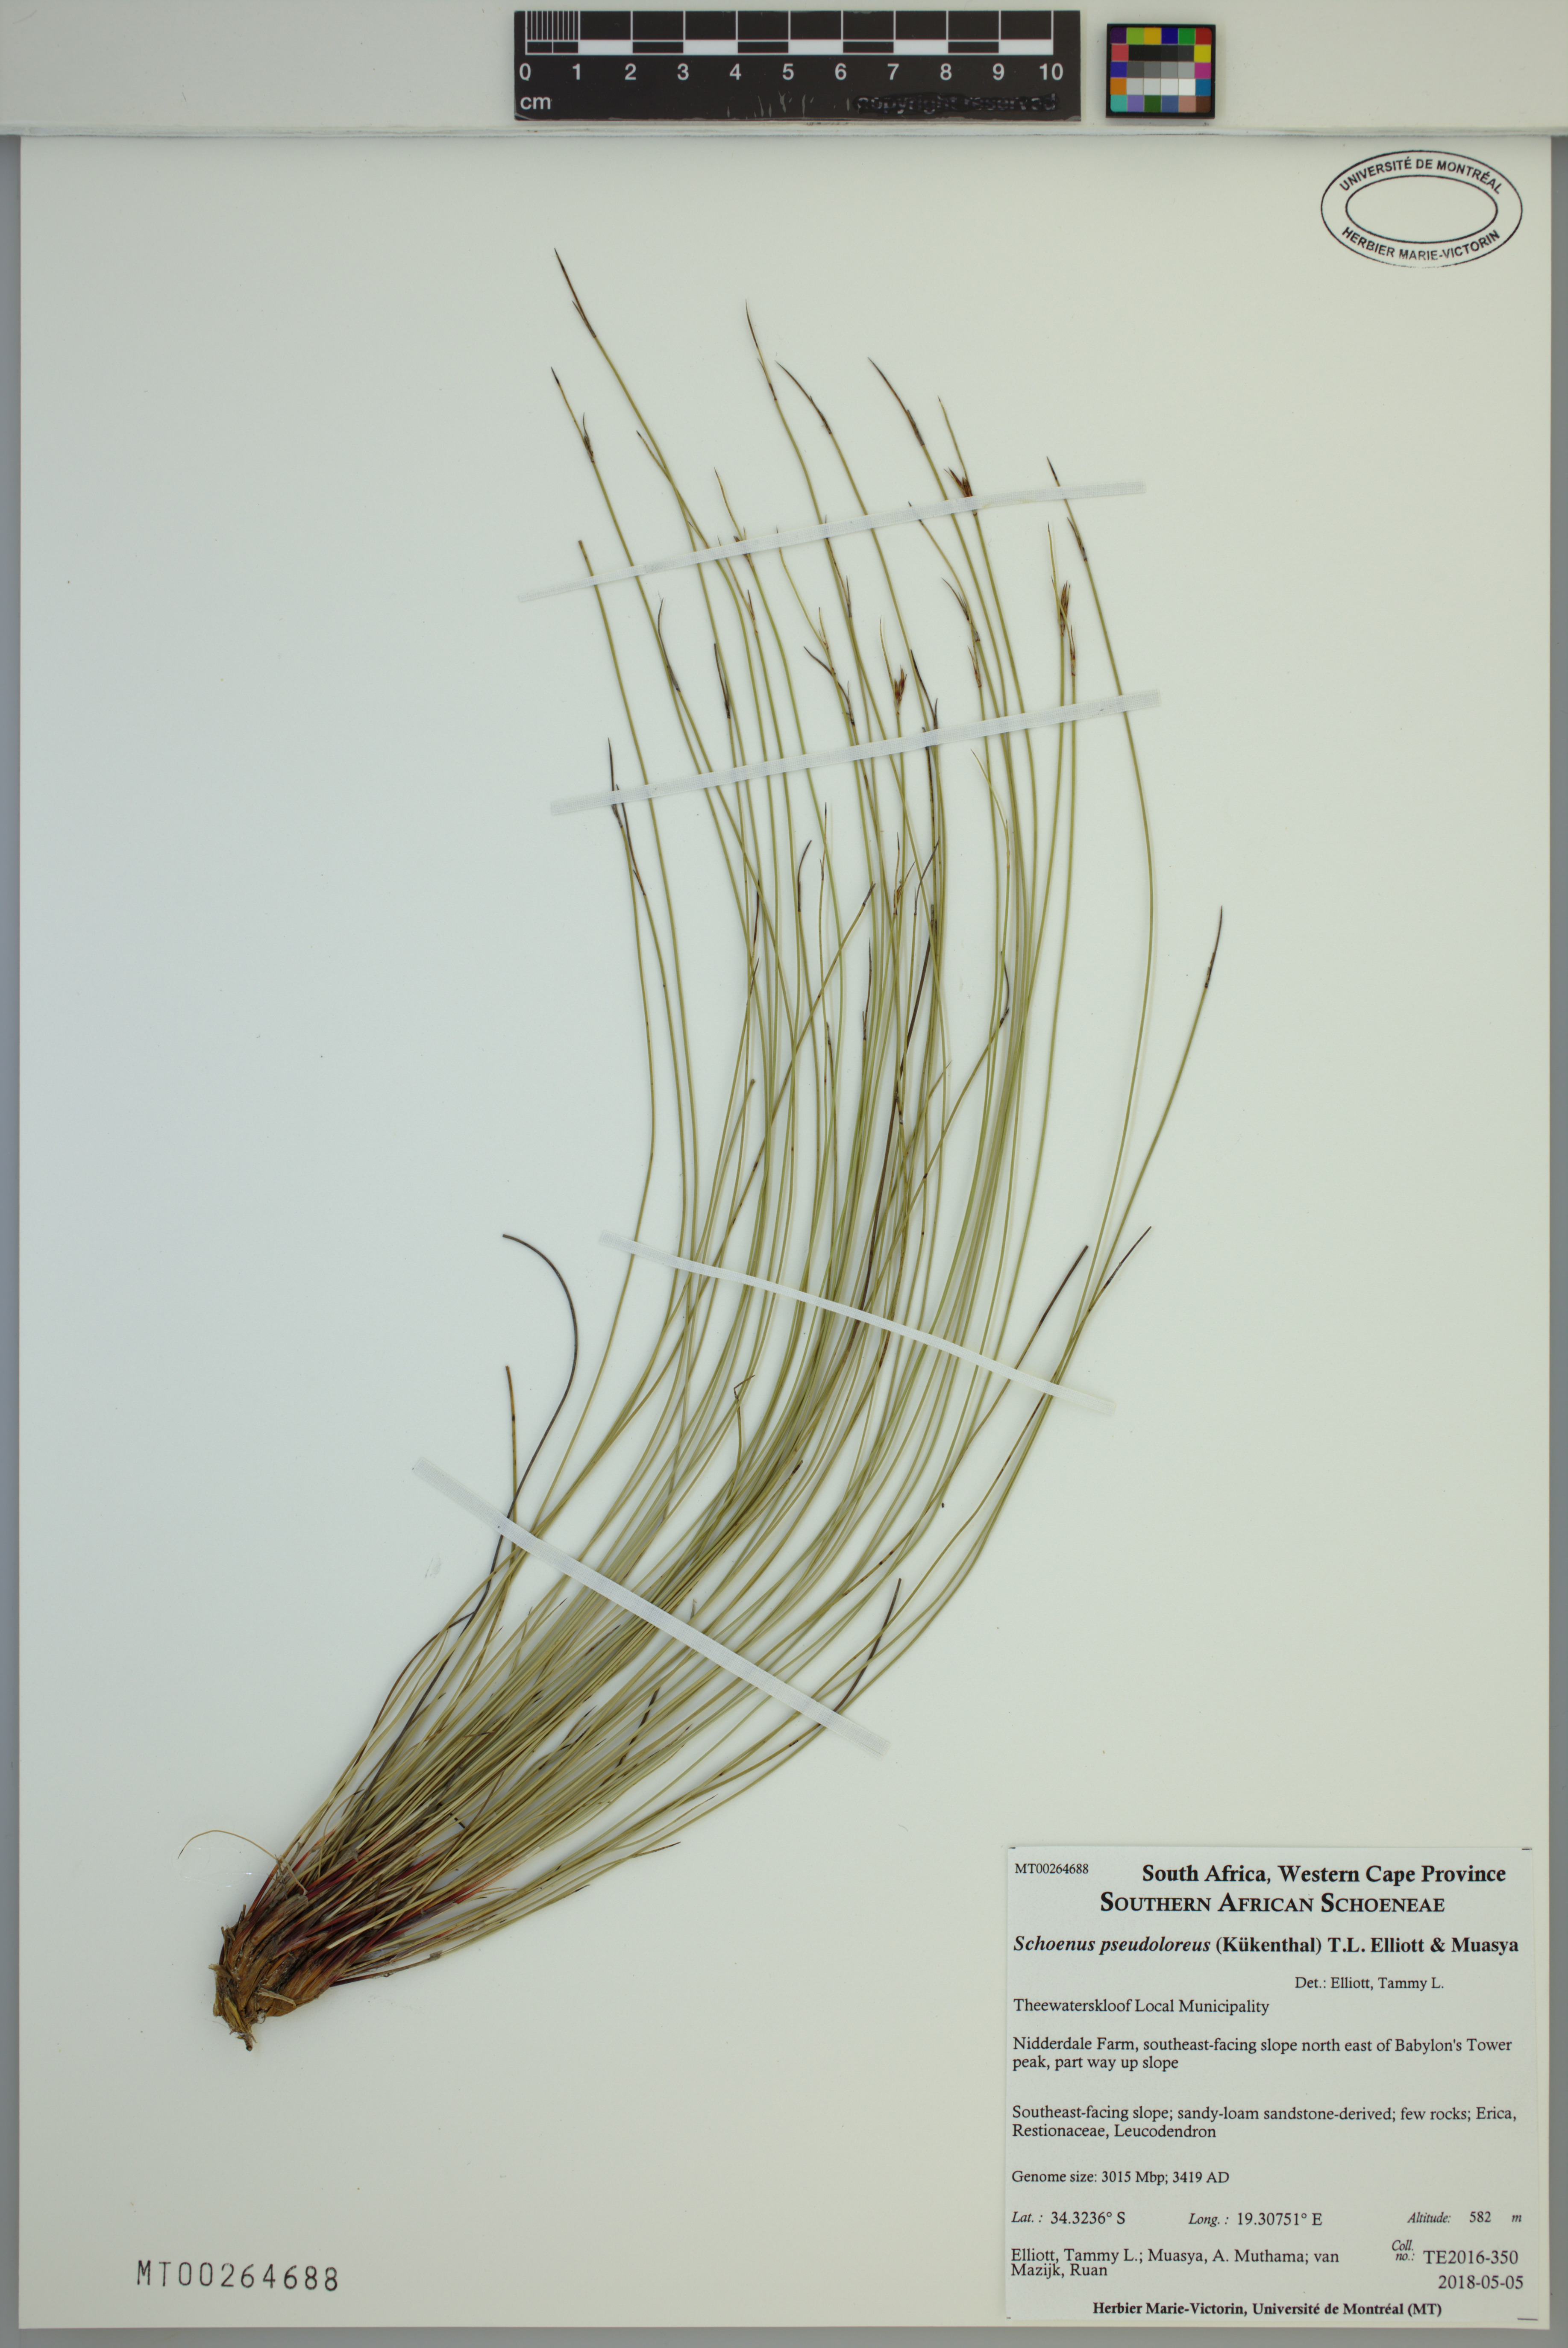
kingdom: Plantae
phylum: Tracheophyta
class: Liliopsida
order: Poales
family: Cyperaceae
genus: Schoenus
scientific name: Schoenus pseudoloreus
